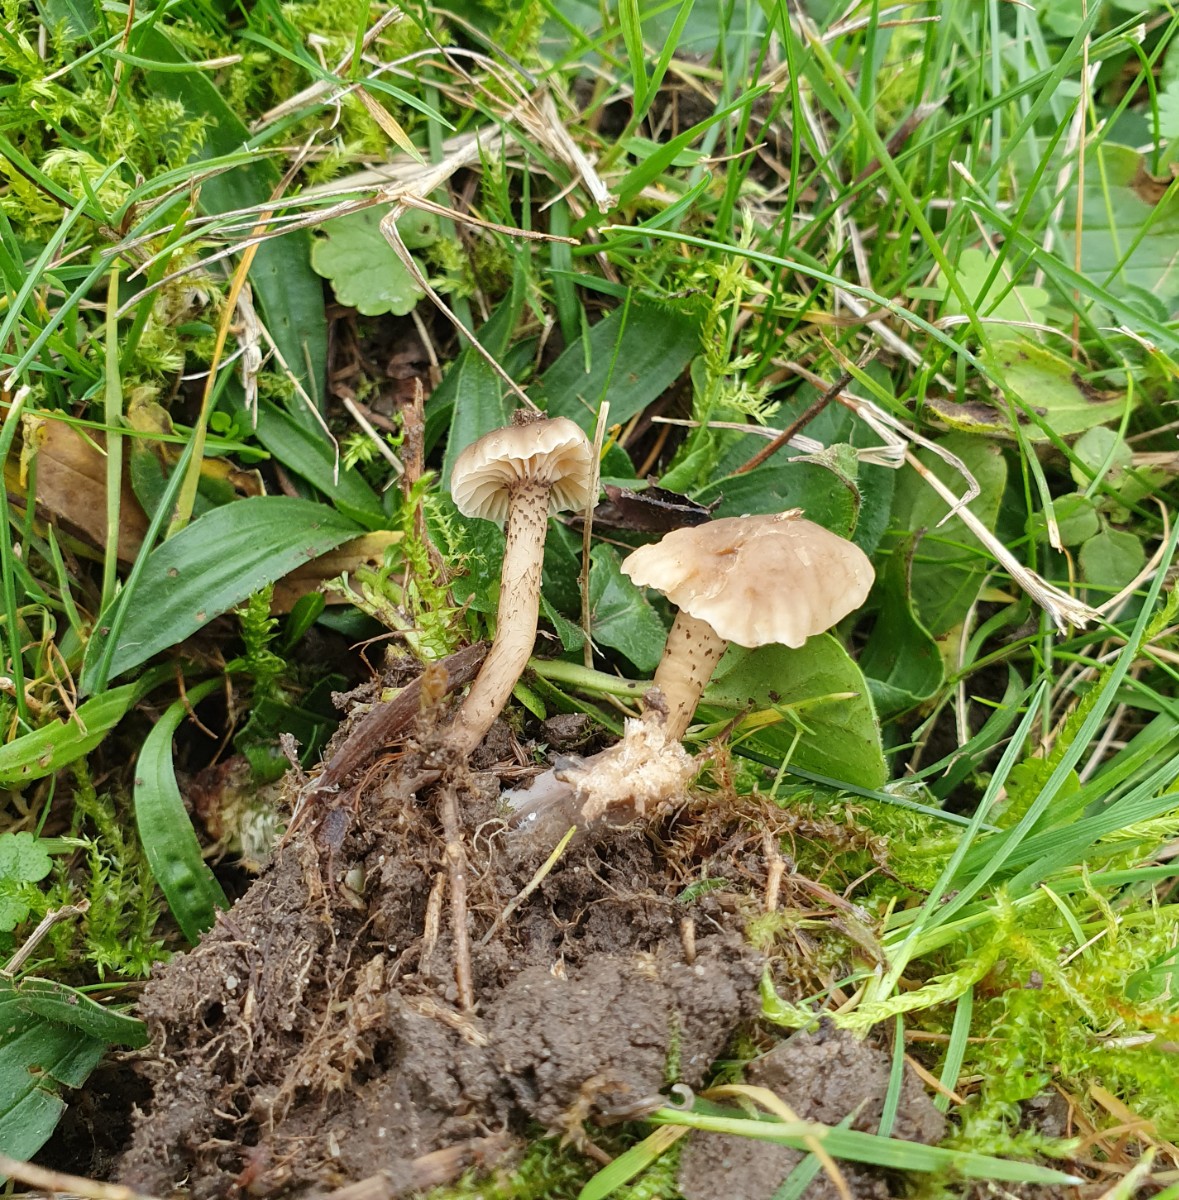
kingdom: Fungi
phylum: Basidiomycota
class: Agaricomycetes
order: Agaricales
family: Clavariaceae
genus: Hodophilus
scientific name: Hodophilus atropunctus
